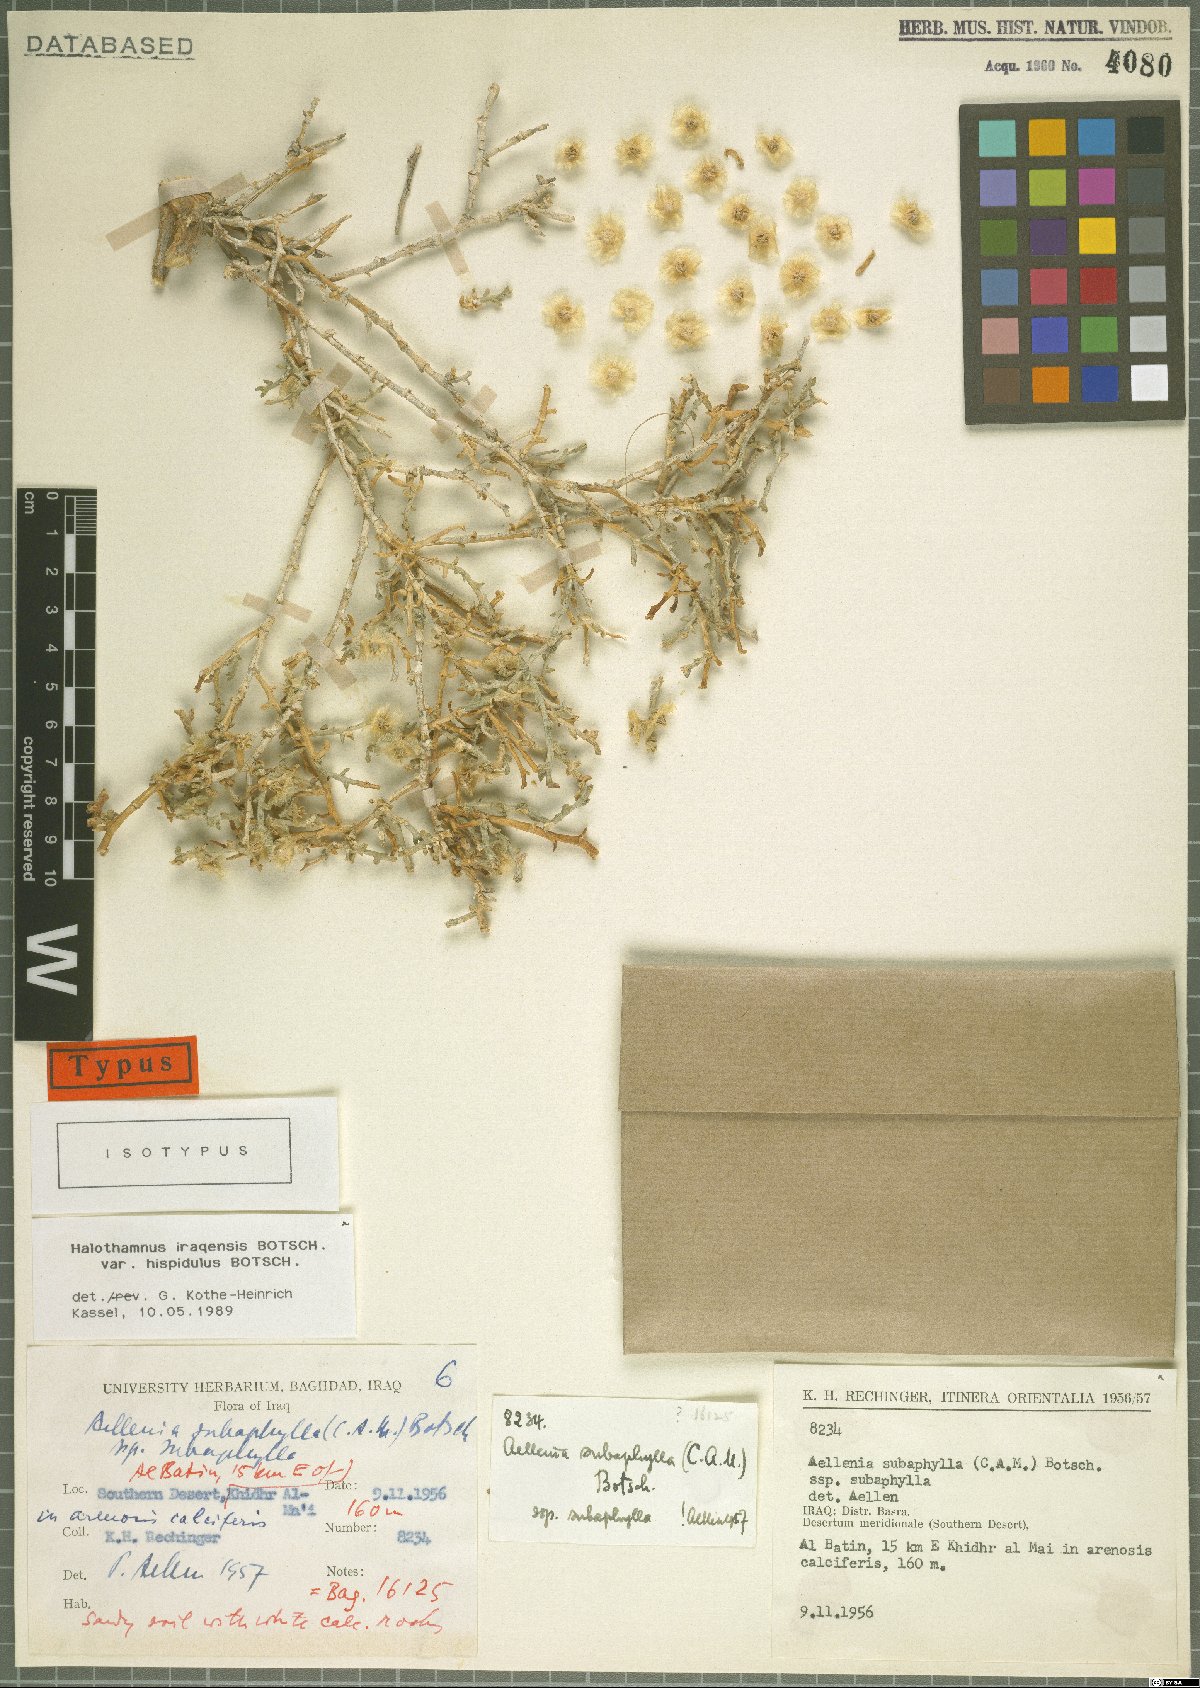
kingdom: Plantae
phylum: Tracheophyta
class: Magnoliopsida
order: Caryophyllales
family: Amaranthaceae
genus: Halothamnus
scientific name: Halothamnus iraqensis
